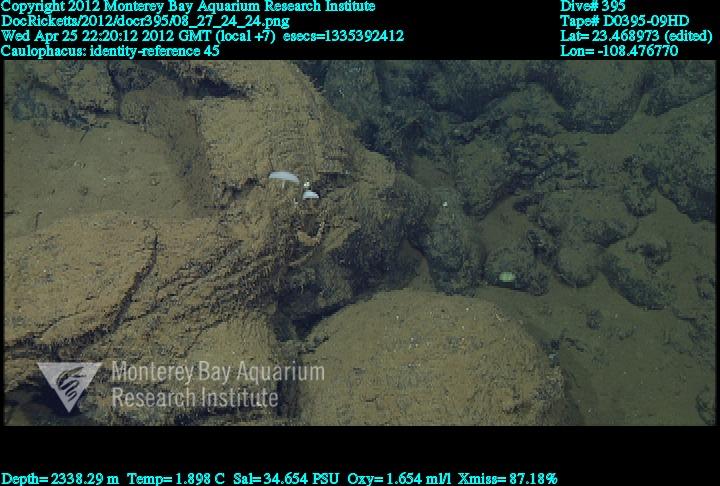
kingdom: Animalia
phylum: Porifera
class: Hexactinellida
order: Lyssacinosida
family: Rossellidae
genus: Caulophacus
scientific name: Caulophacus
